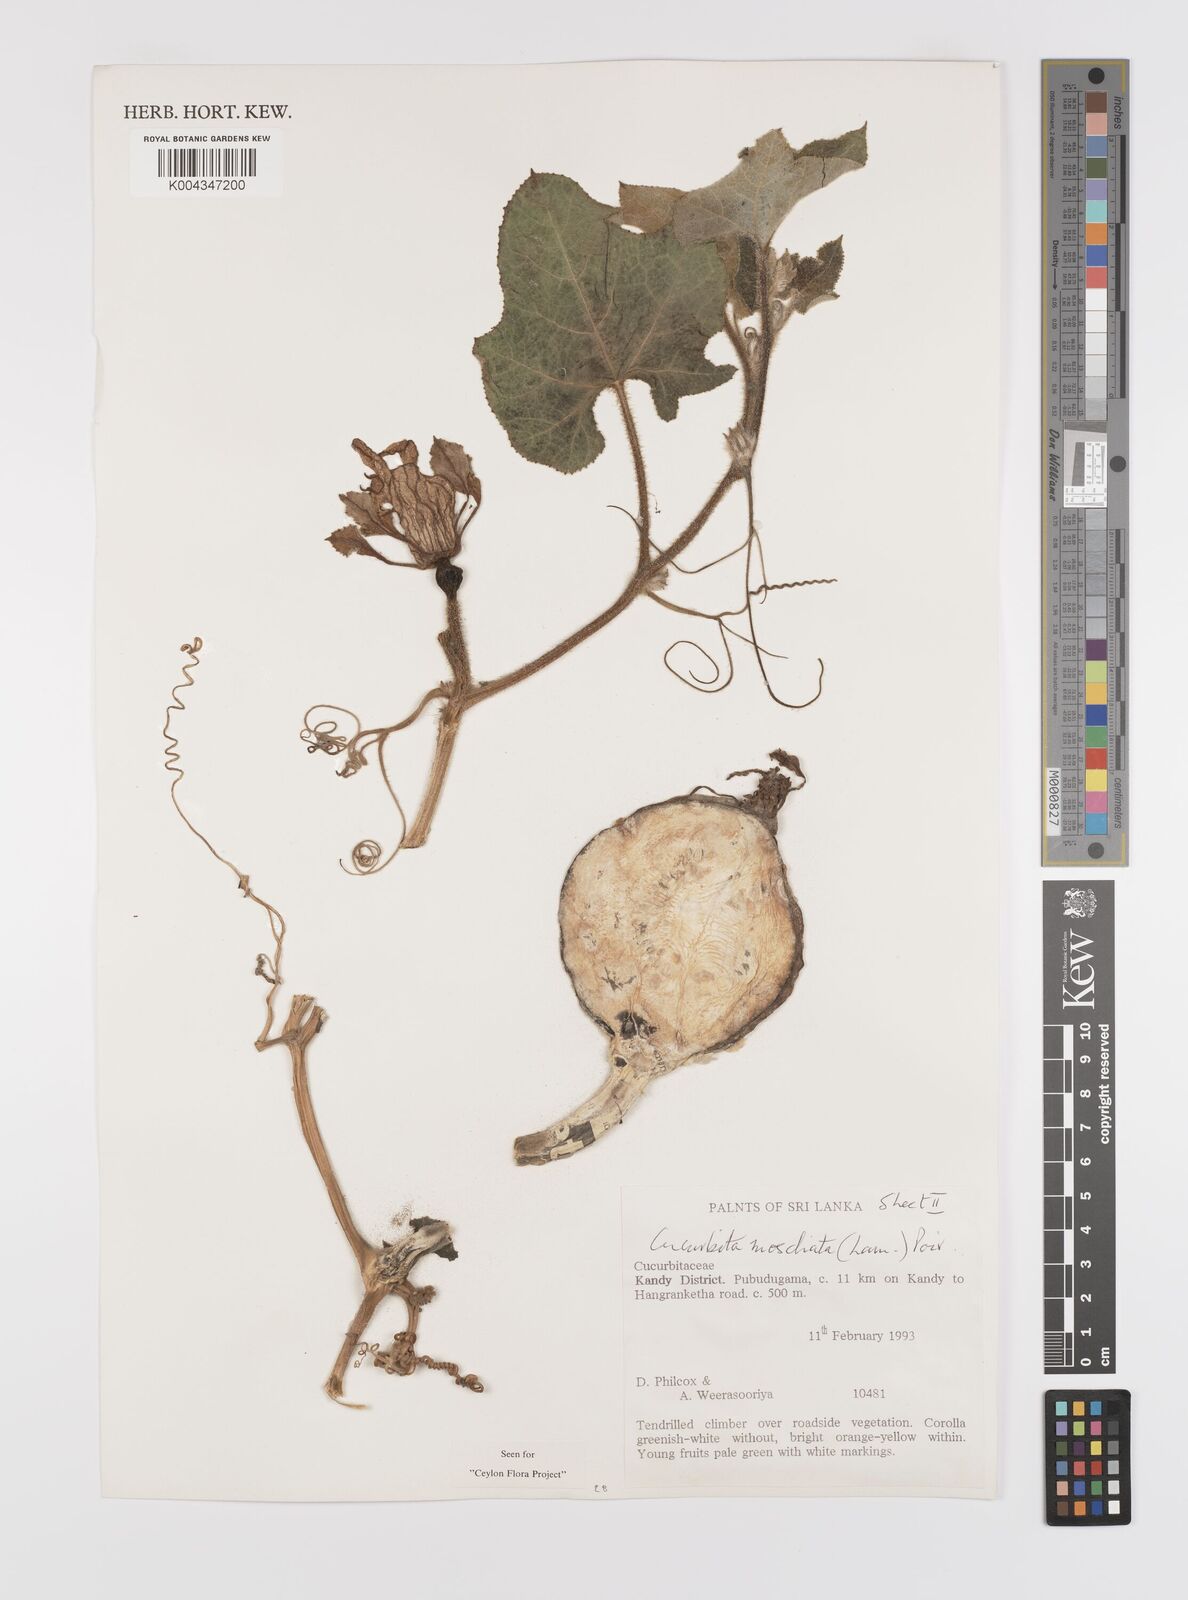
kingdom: Plantae
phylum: Tracheophyta
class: Magnoliopsida
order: Cucurbitales
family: Cucurbitaceae
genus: Cucurbita
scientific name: Cucurbita moschata
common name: Squash / pumpkin
